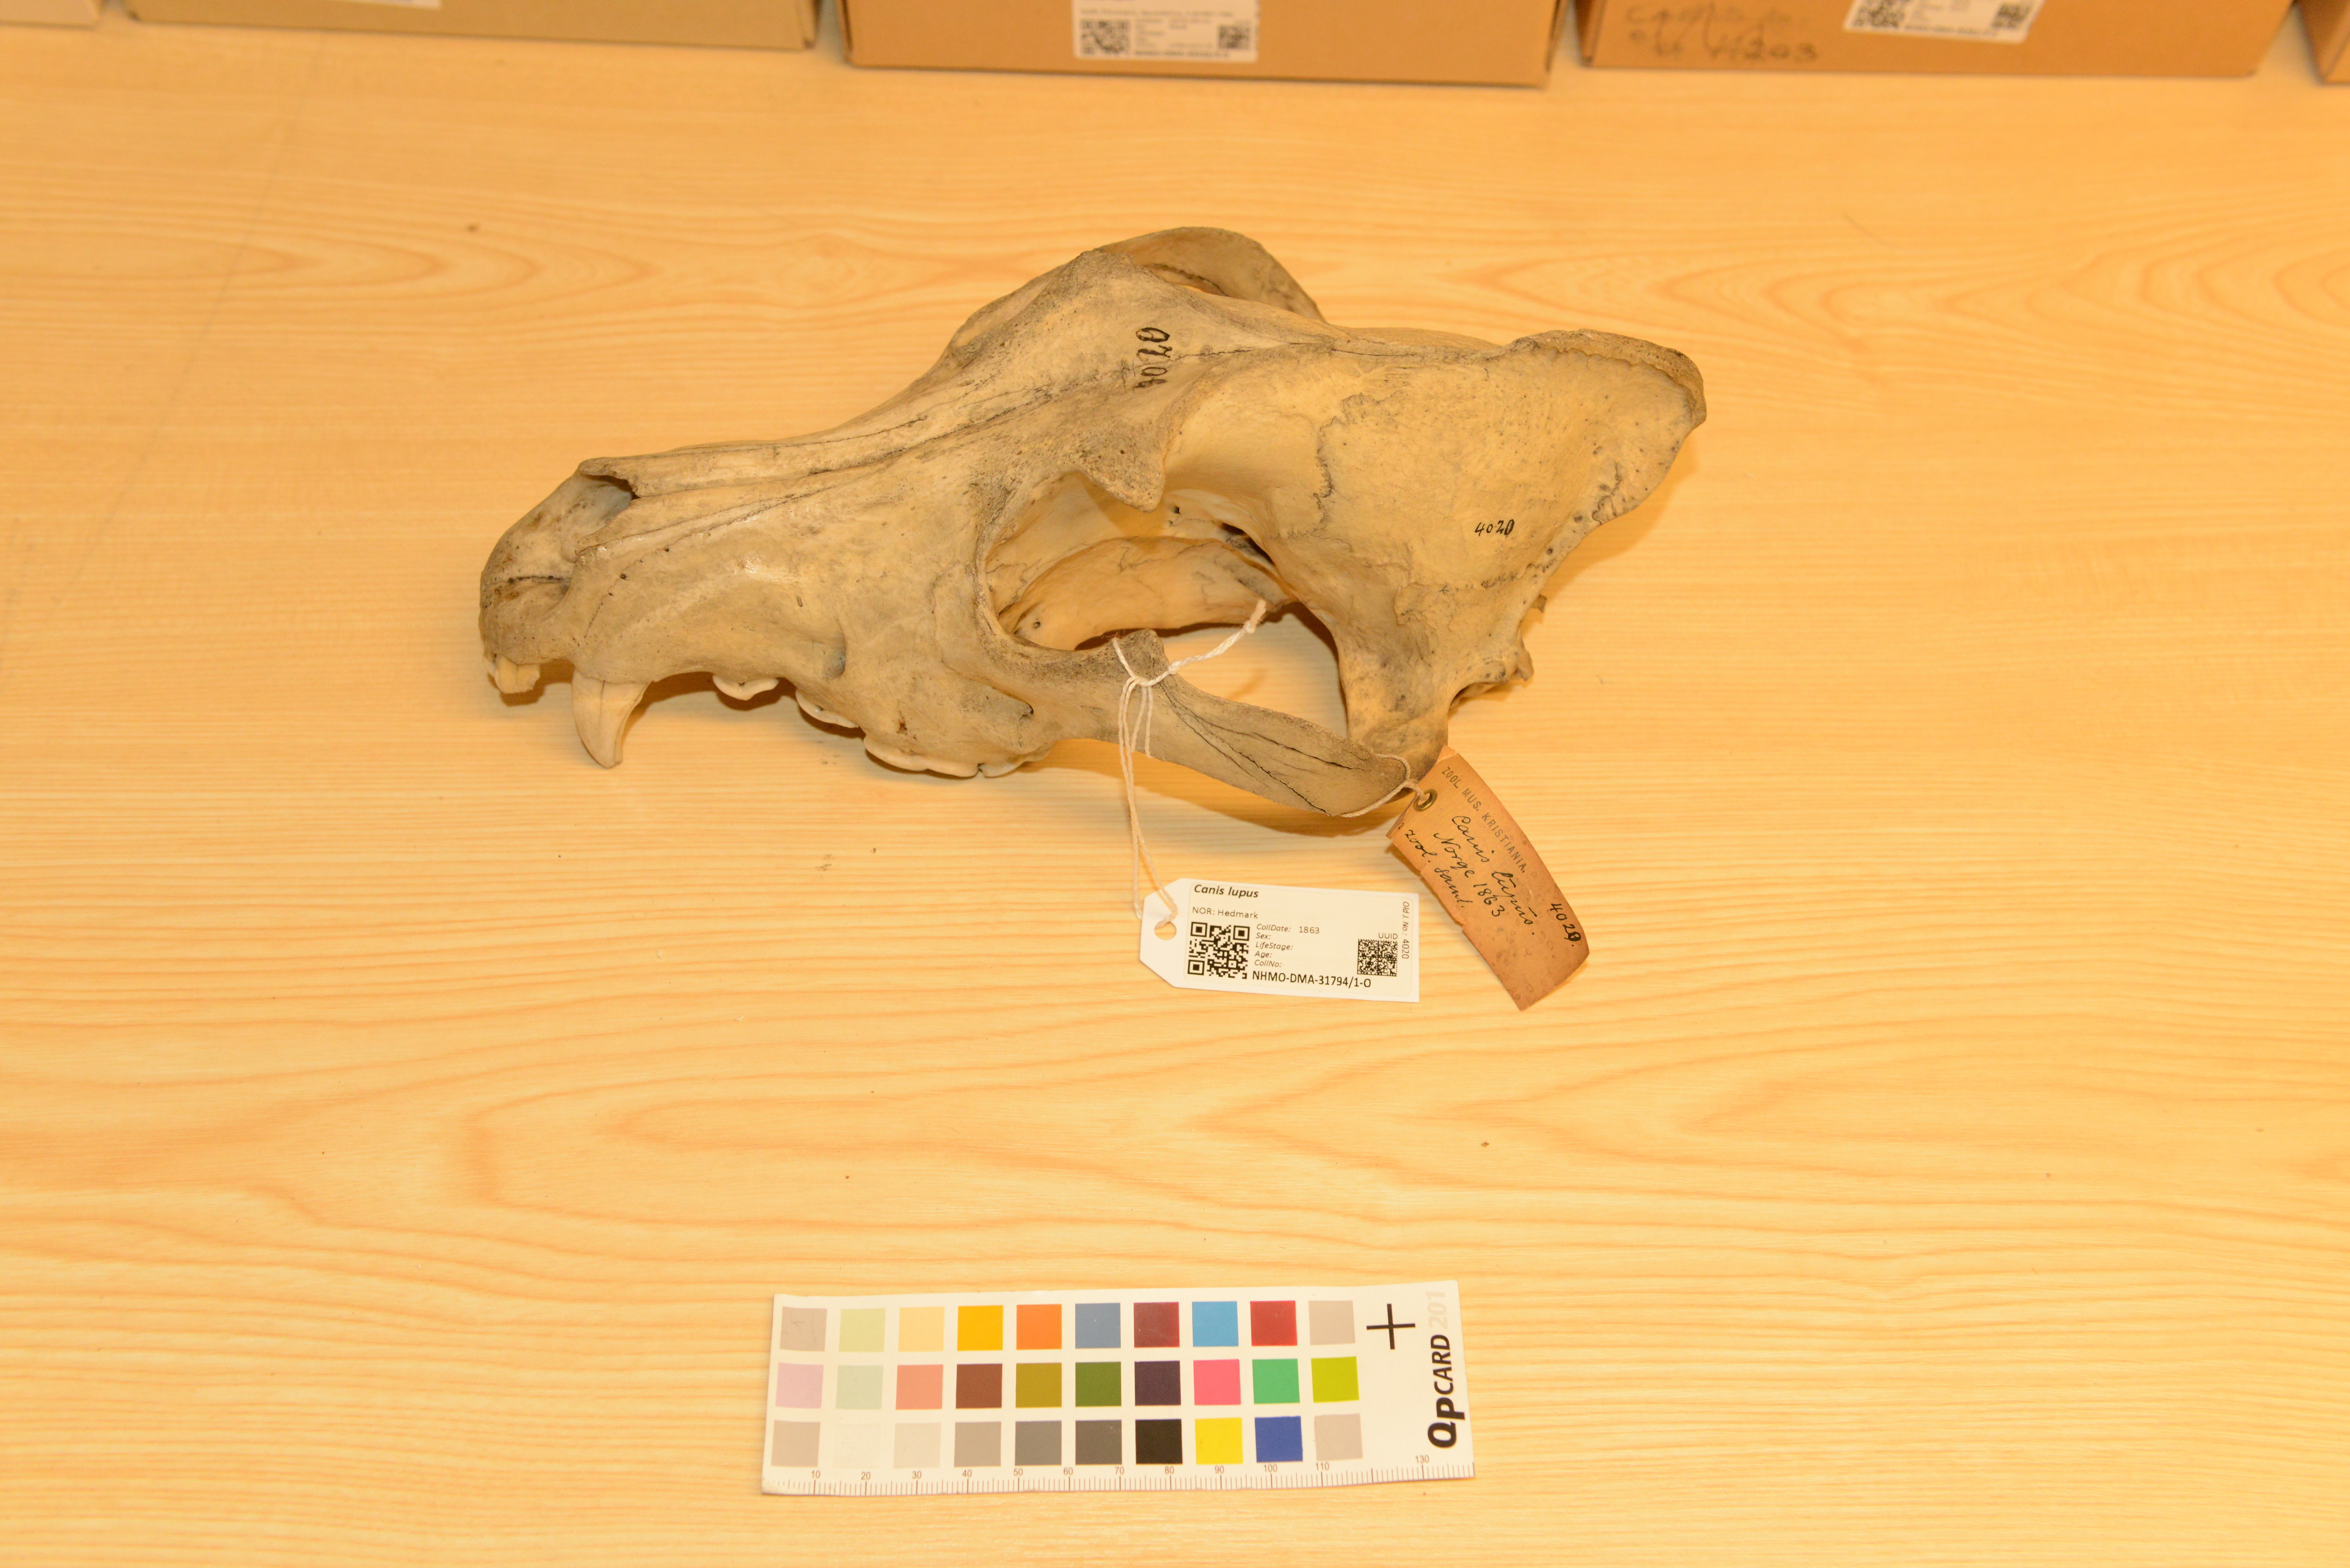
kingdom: Animalia
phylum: Chordata
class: Mammalia
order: Carnivora
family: Canidae
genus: Canis
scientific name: Canis lupus
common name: Gray wolf
